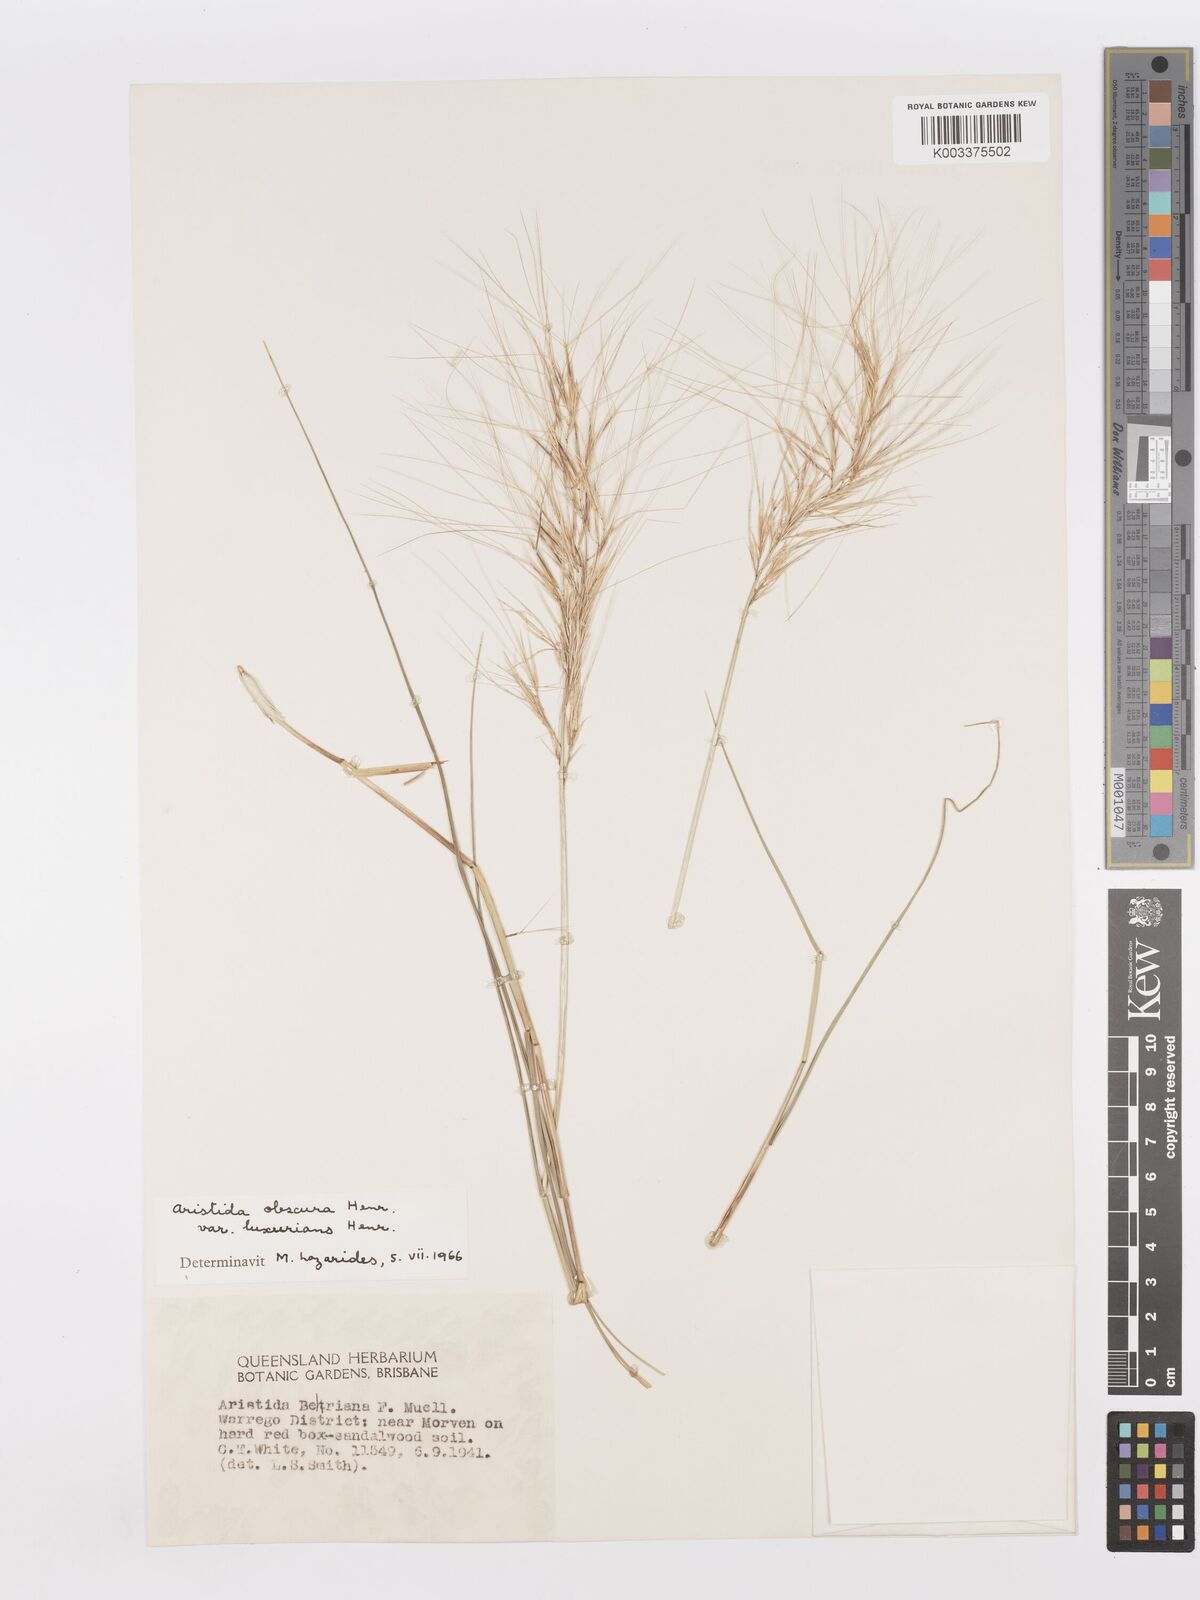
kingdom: Plantae
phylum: Tracheophyta
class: Liliopsida
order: Poales
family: Poaceae
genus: Aristida
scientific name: Aristida obscura
